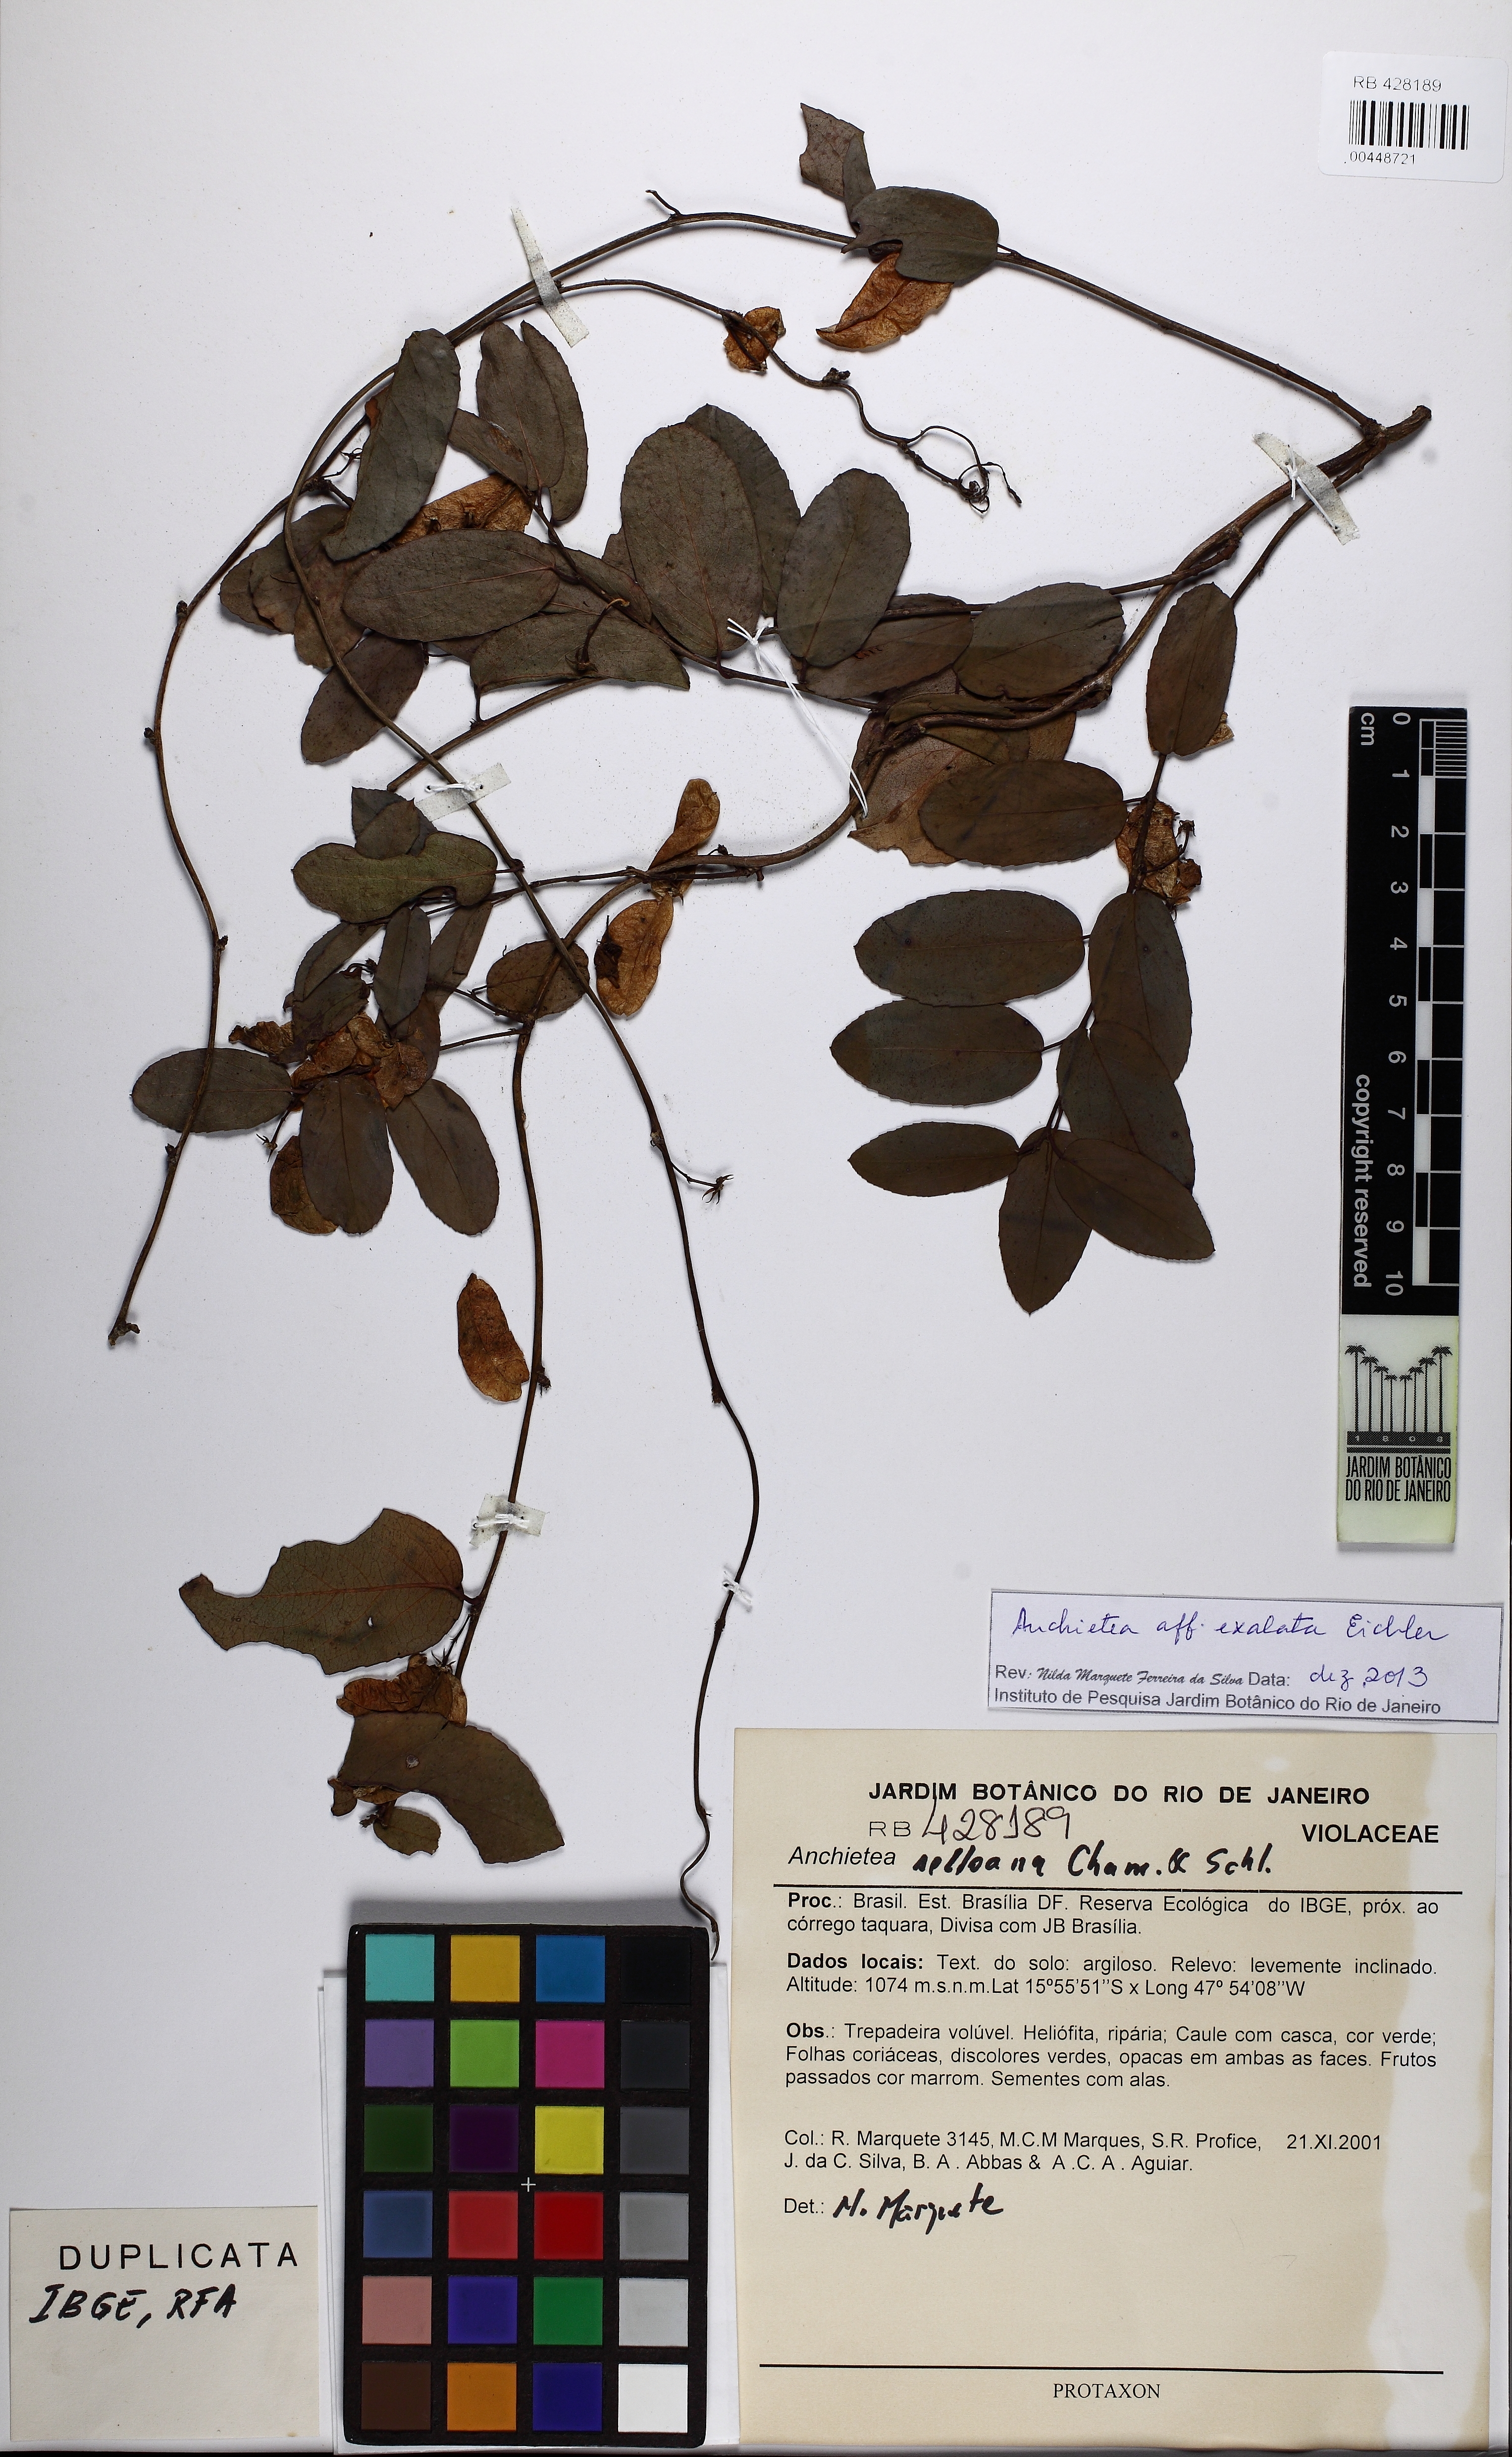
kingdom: Plantae
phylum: Tracheophyta
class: Magnoliopsida
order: Malpighiales
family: Violaceae
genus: Anchietea
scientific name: Anchietea exalata
